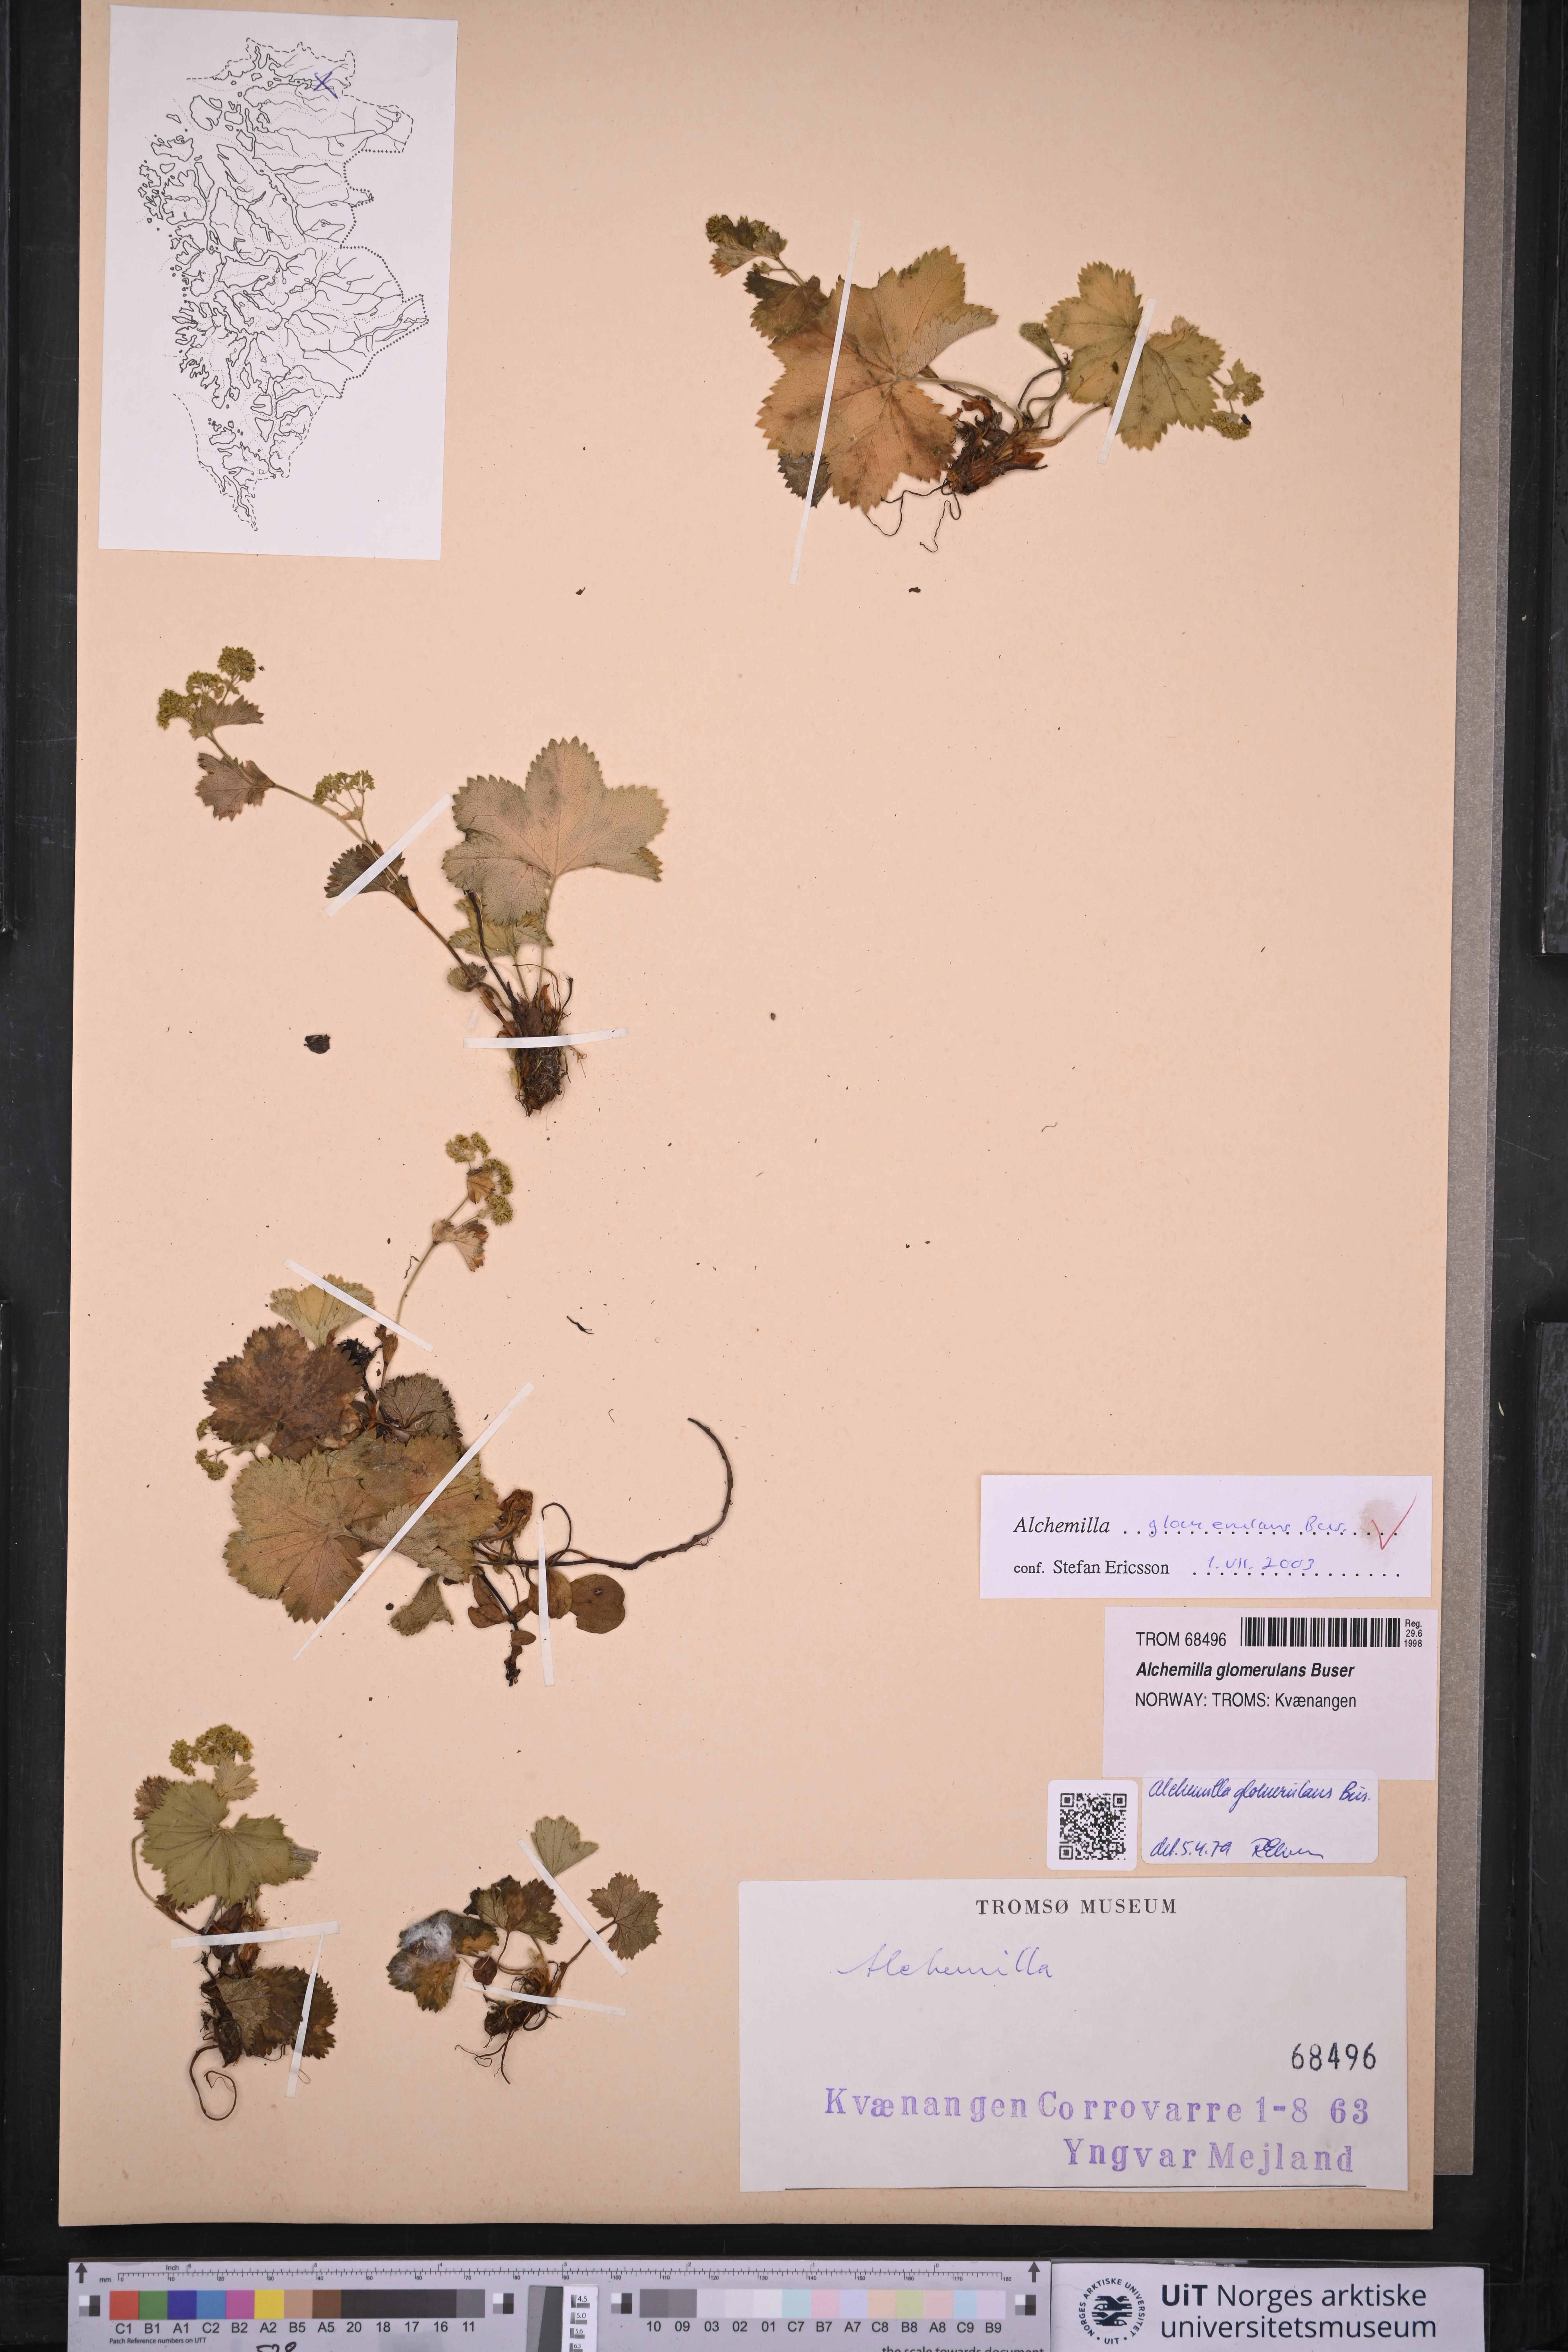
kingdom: Plantae
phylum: Tracheophyta
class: Magnoliopsida
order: Rosales
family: Rosaceae
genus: Alchemilla
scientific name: Alchemilla glomerulans
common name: Clustered lady's mantle
